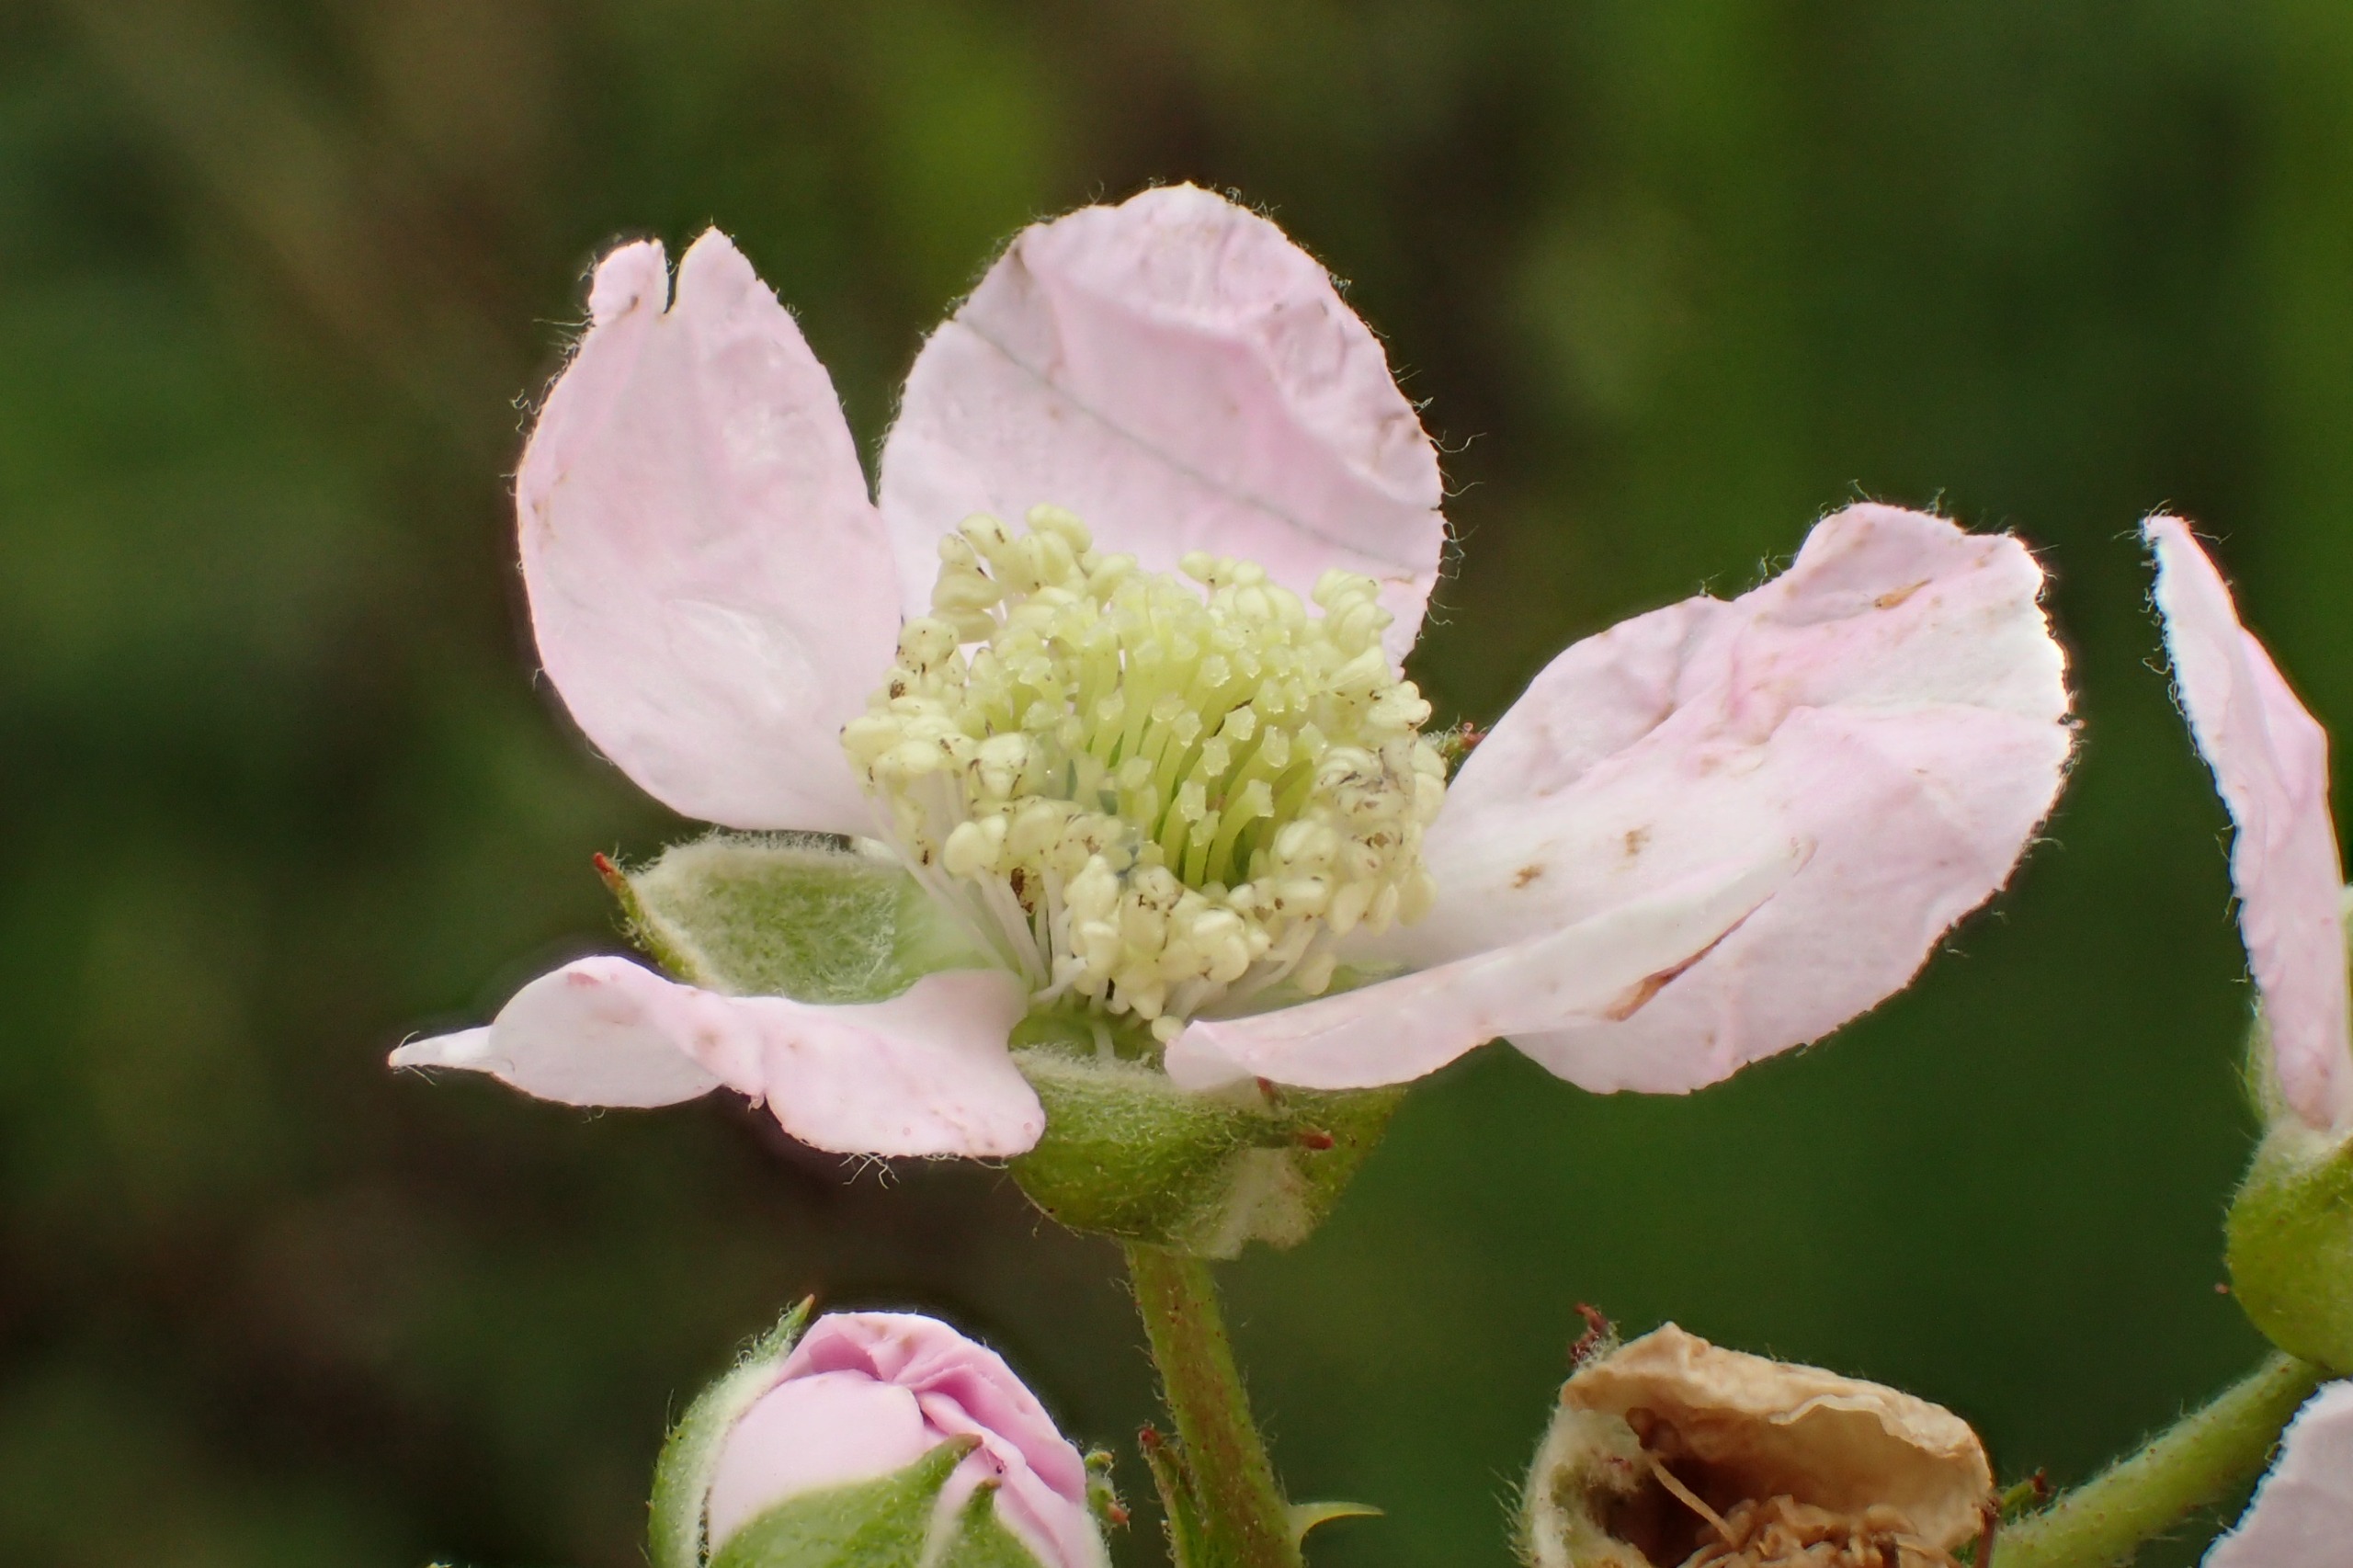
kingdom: Plantae
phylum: Tracheophyta
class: Magnoliopsida
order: Rosales
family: Rosaceae
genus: Rubus
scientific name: Rubus plicatus
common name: Almindelig brombær
